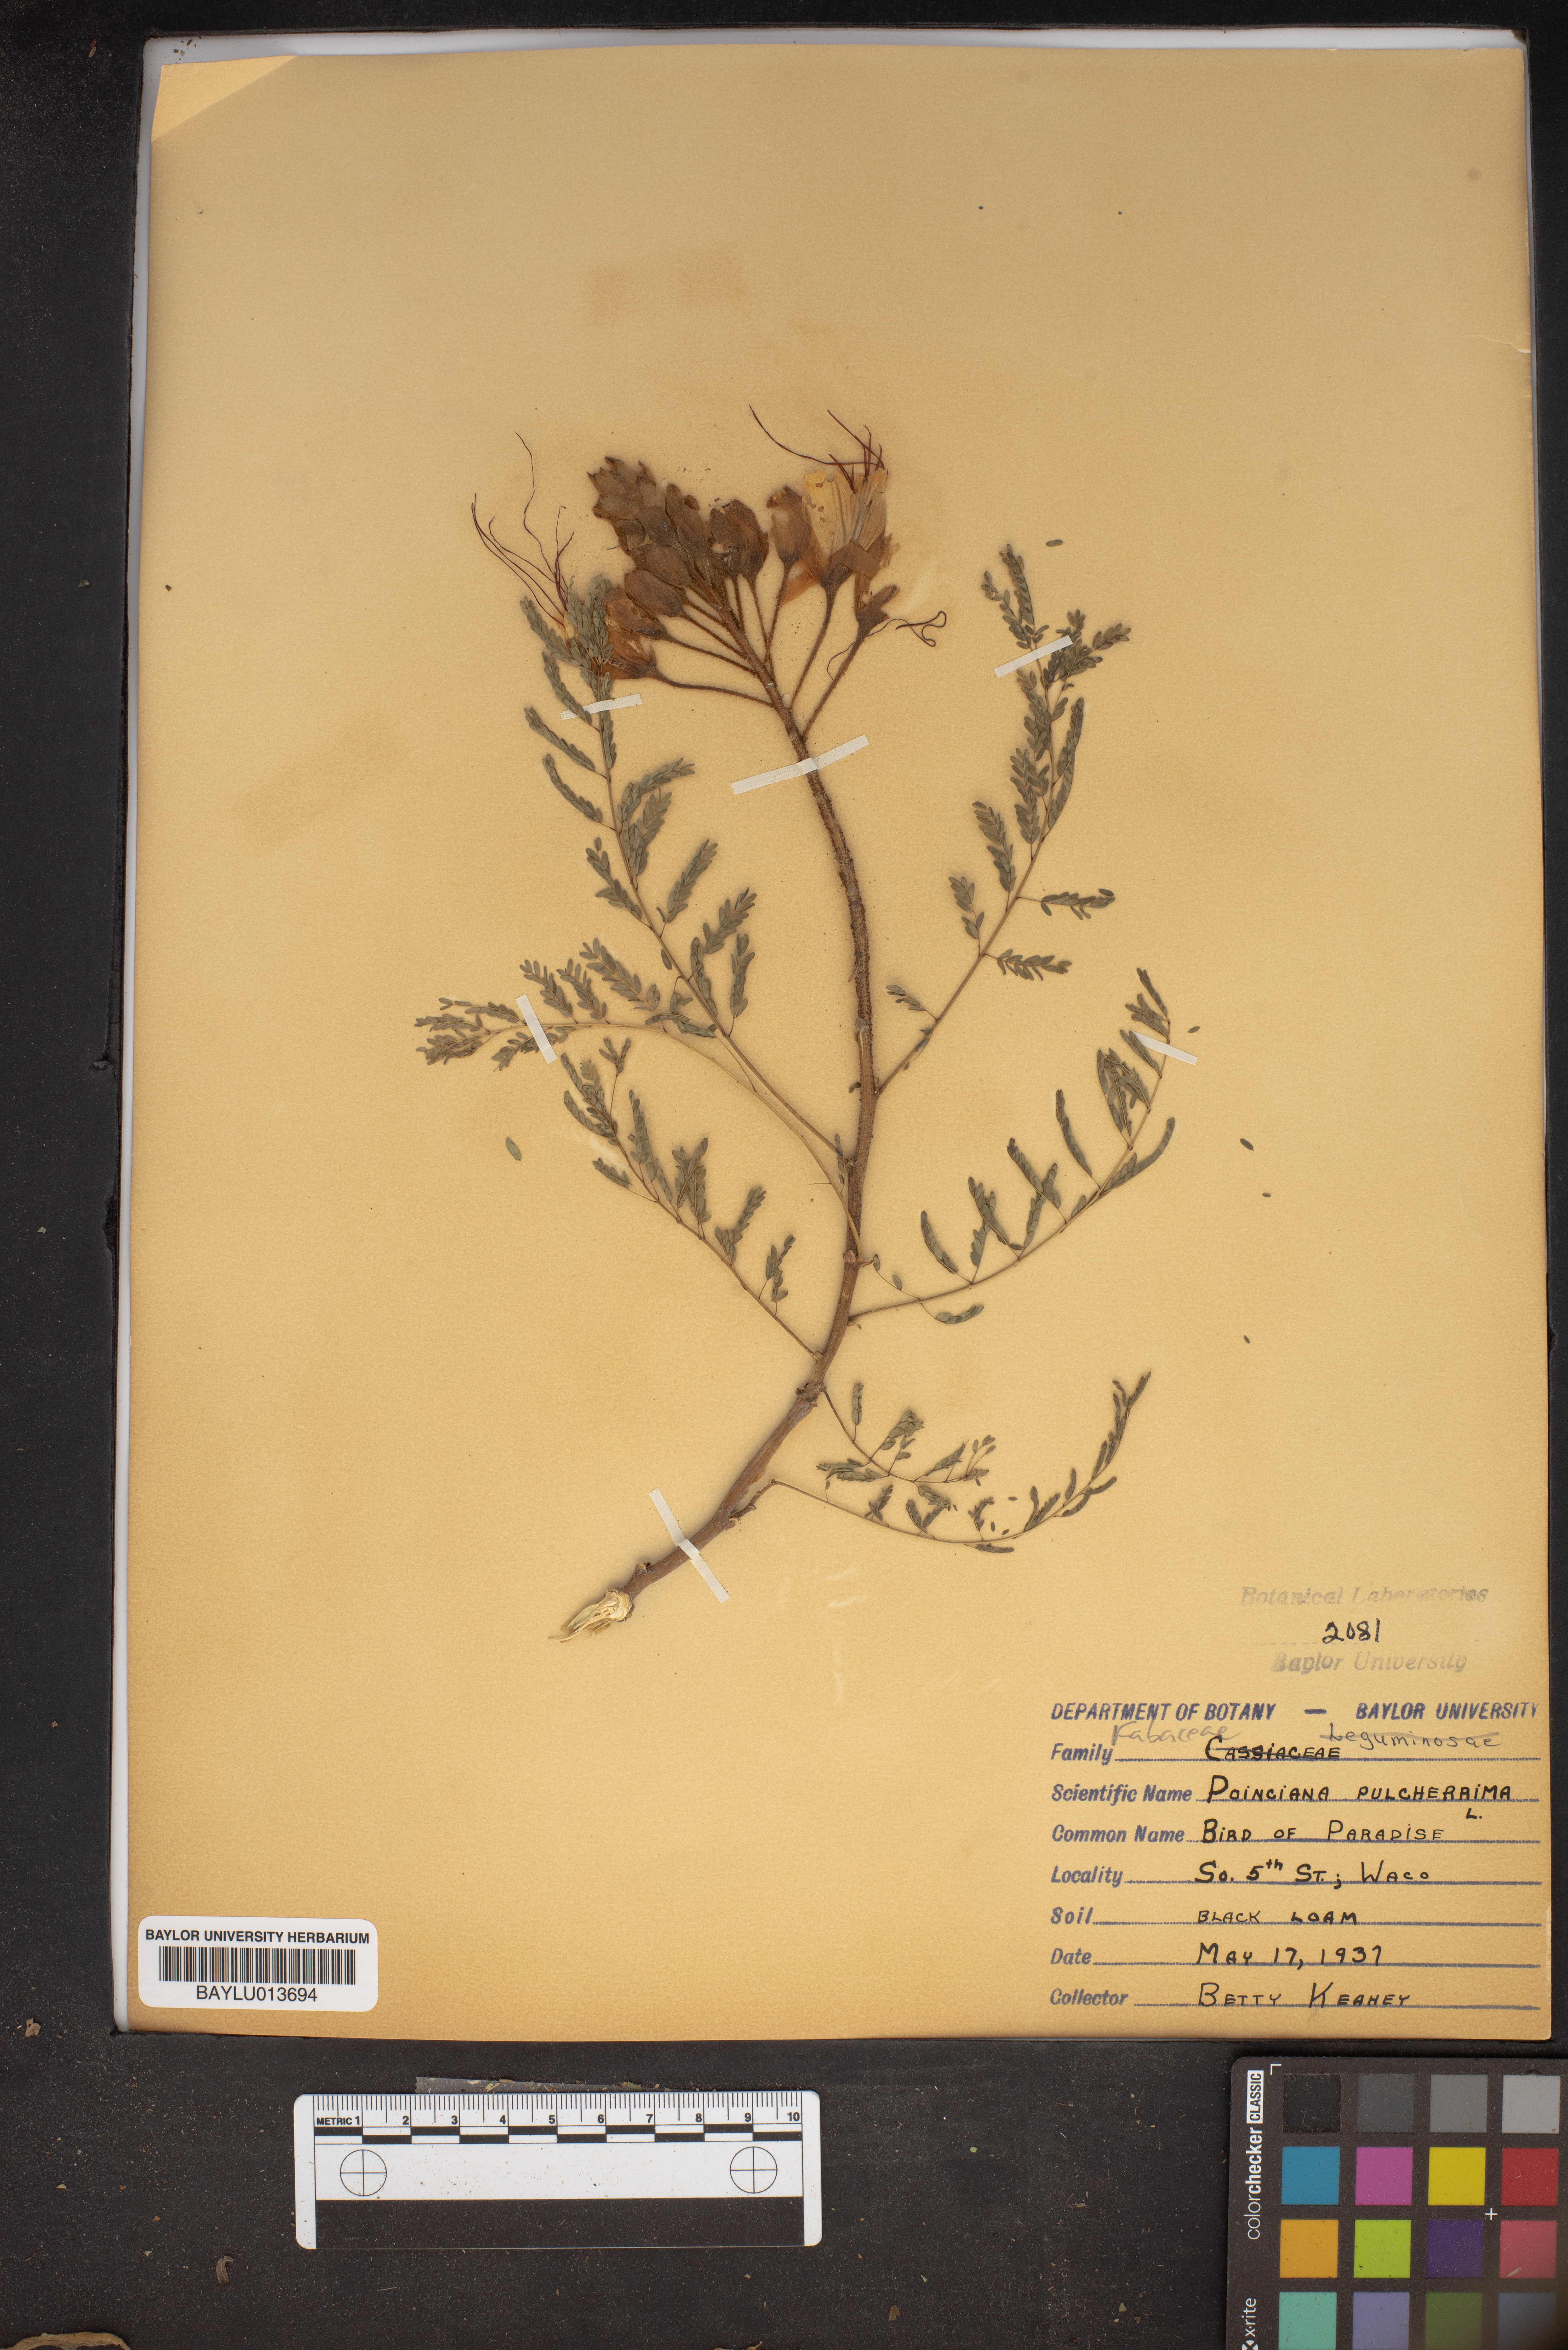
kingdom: Plantae
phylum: Tracheophyta
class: Magnoliopsida
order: Fabales
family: Fabaceae
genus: Caesalpinia
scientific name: Caesalpinia pulcherrima
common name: Pride-of-barbados
